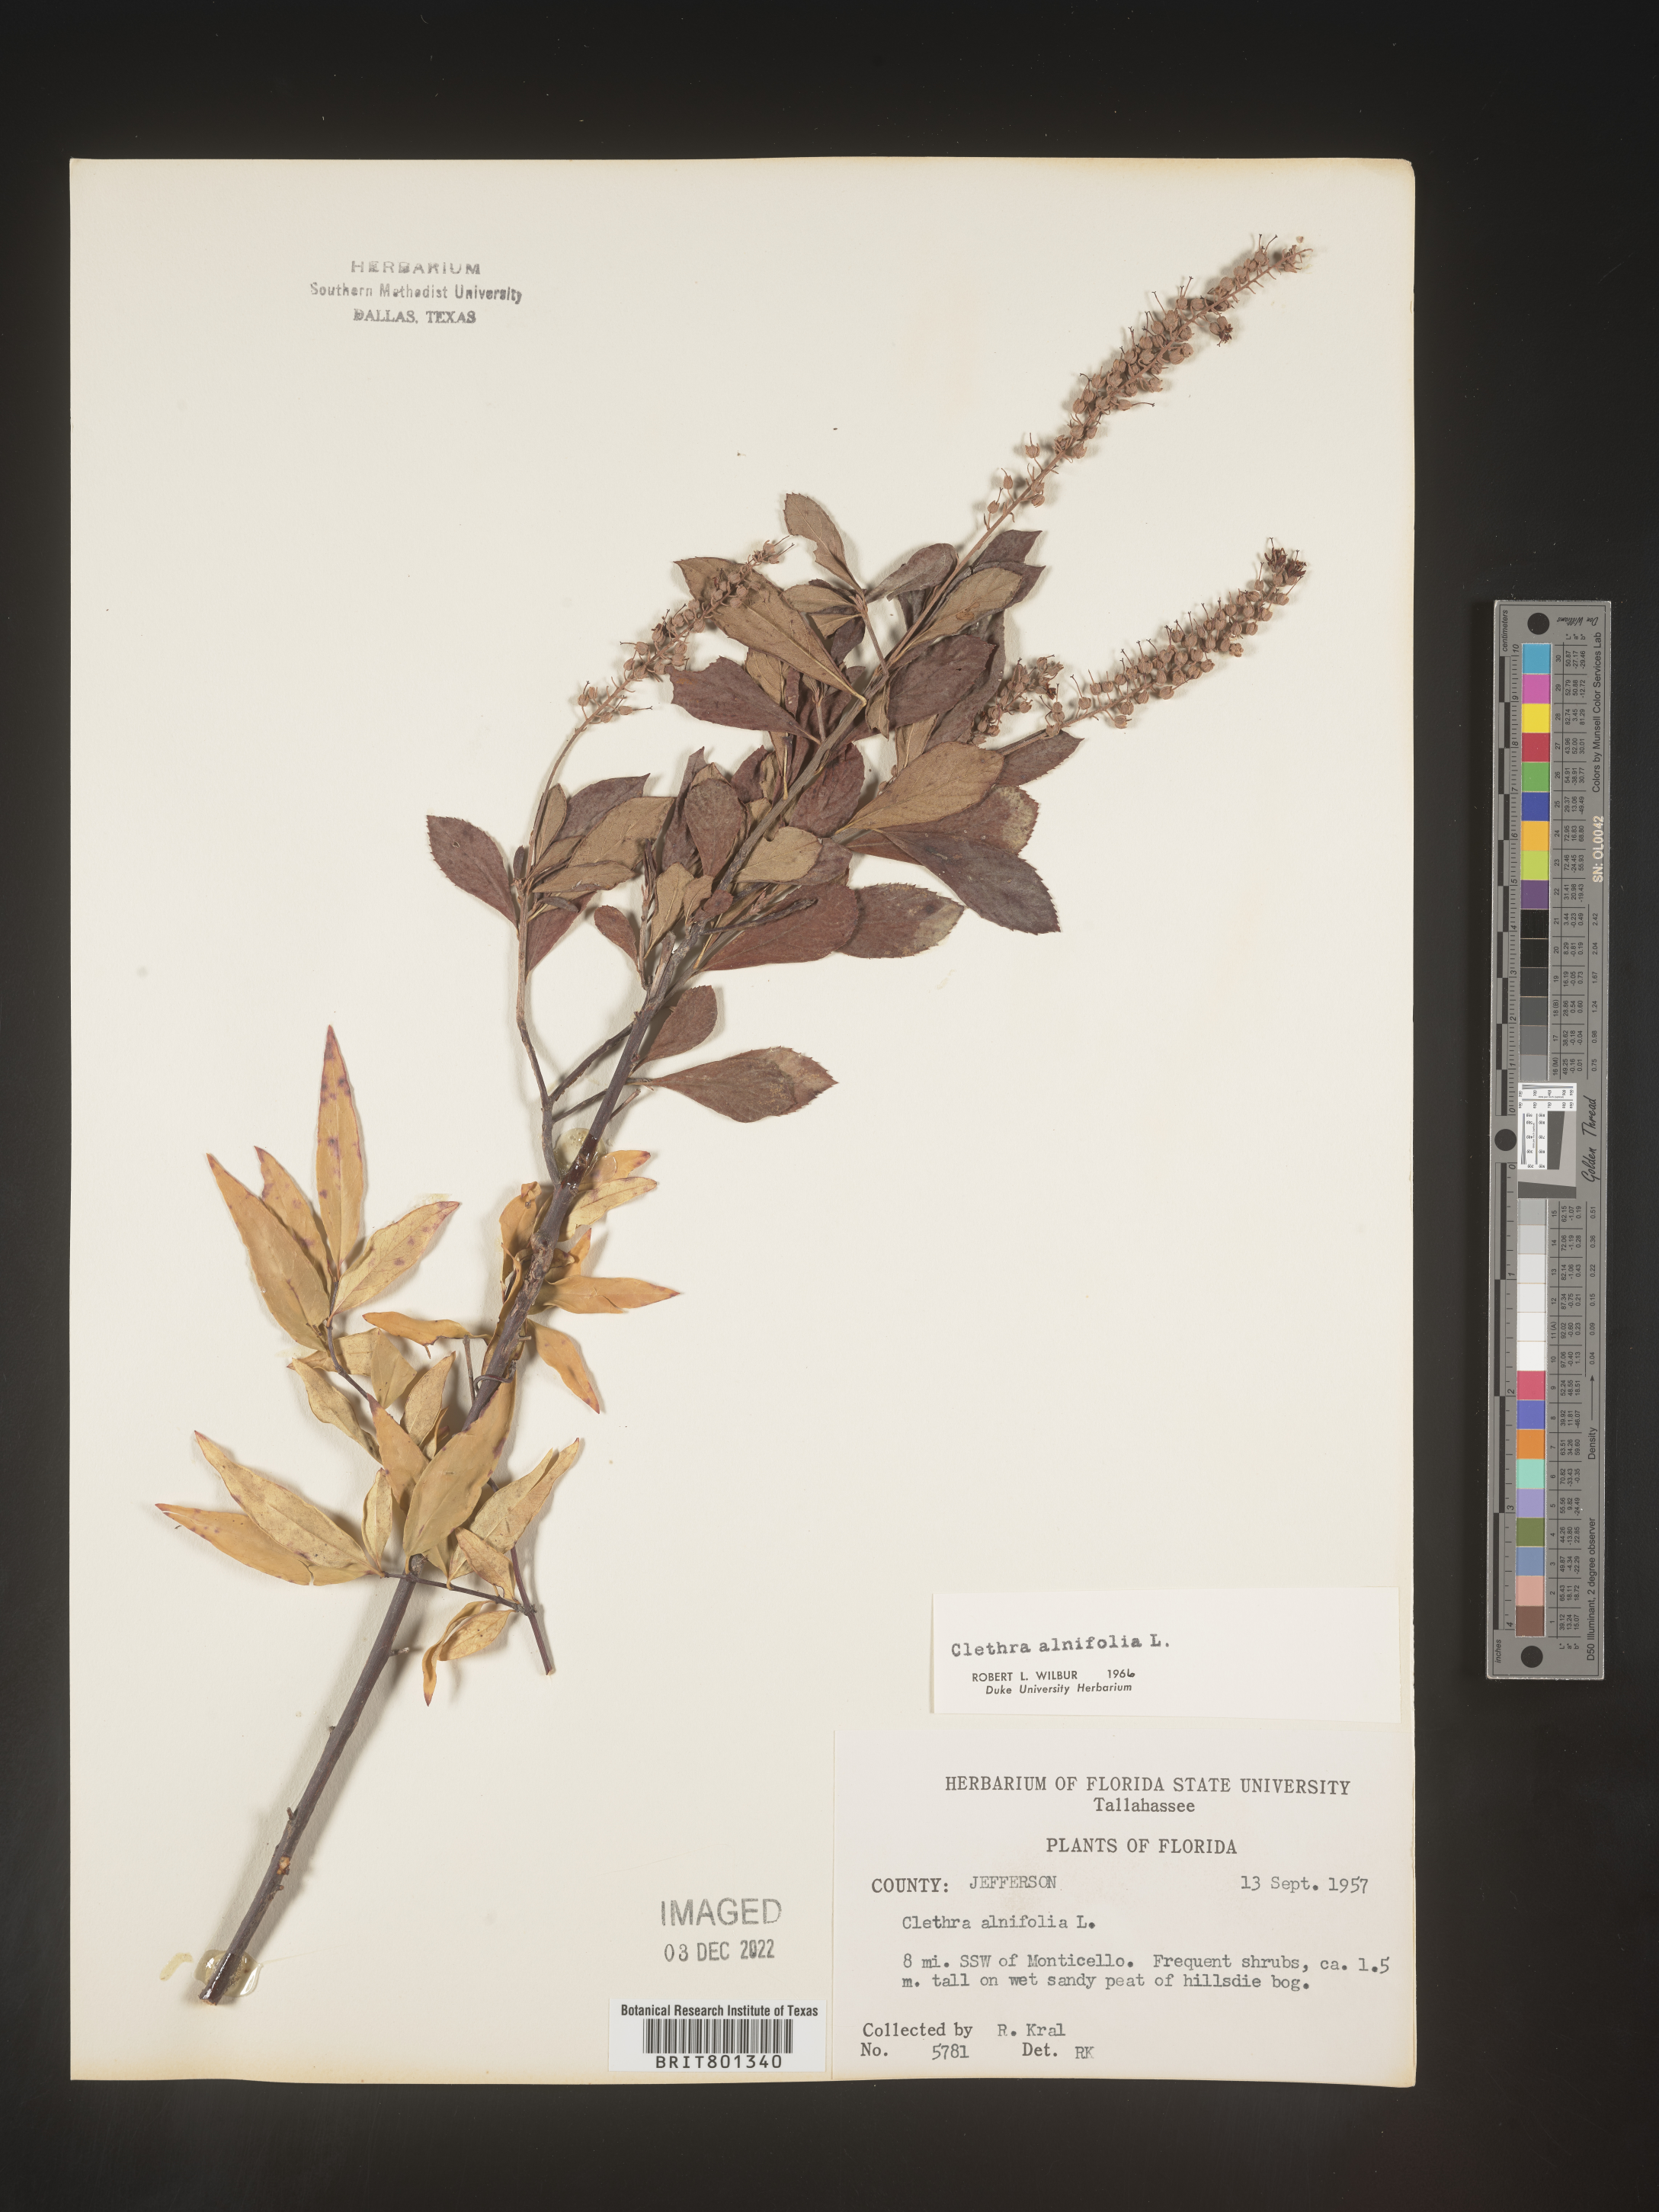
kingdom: Plantae
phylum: Tracheophyta
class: Magnoliopsida
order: Ericales
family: Clethraceae
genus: Clethra
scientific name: Clethra alnifolia
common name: Sweet pepperbush
